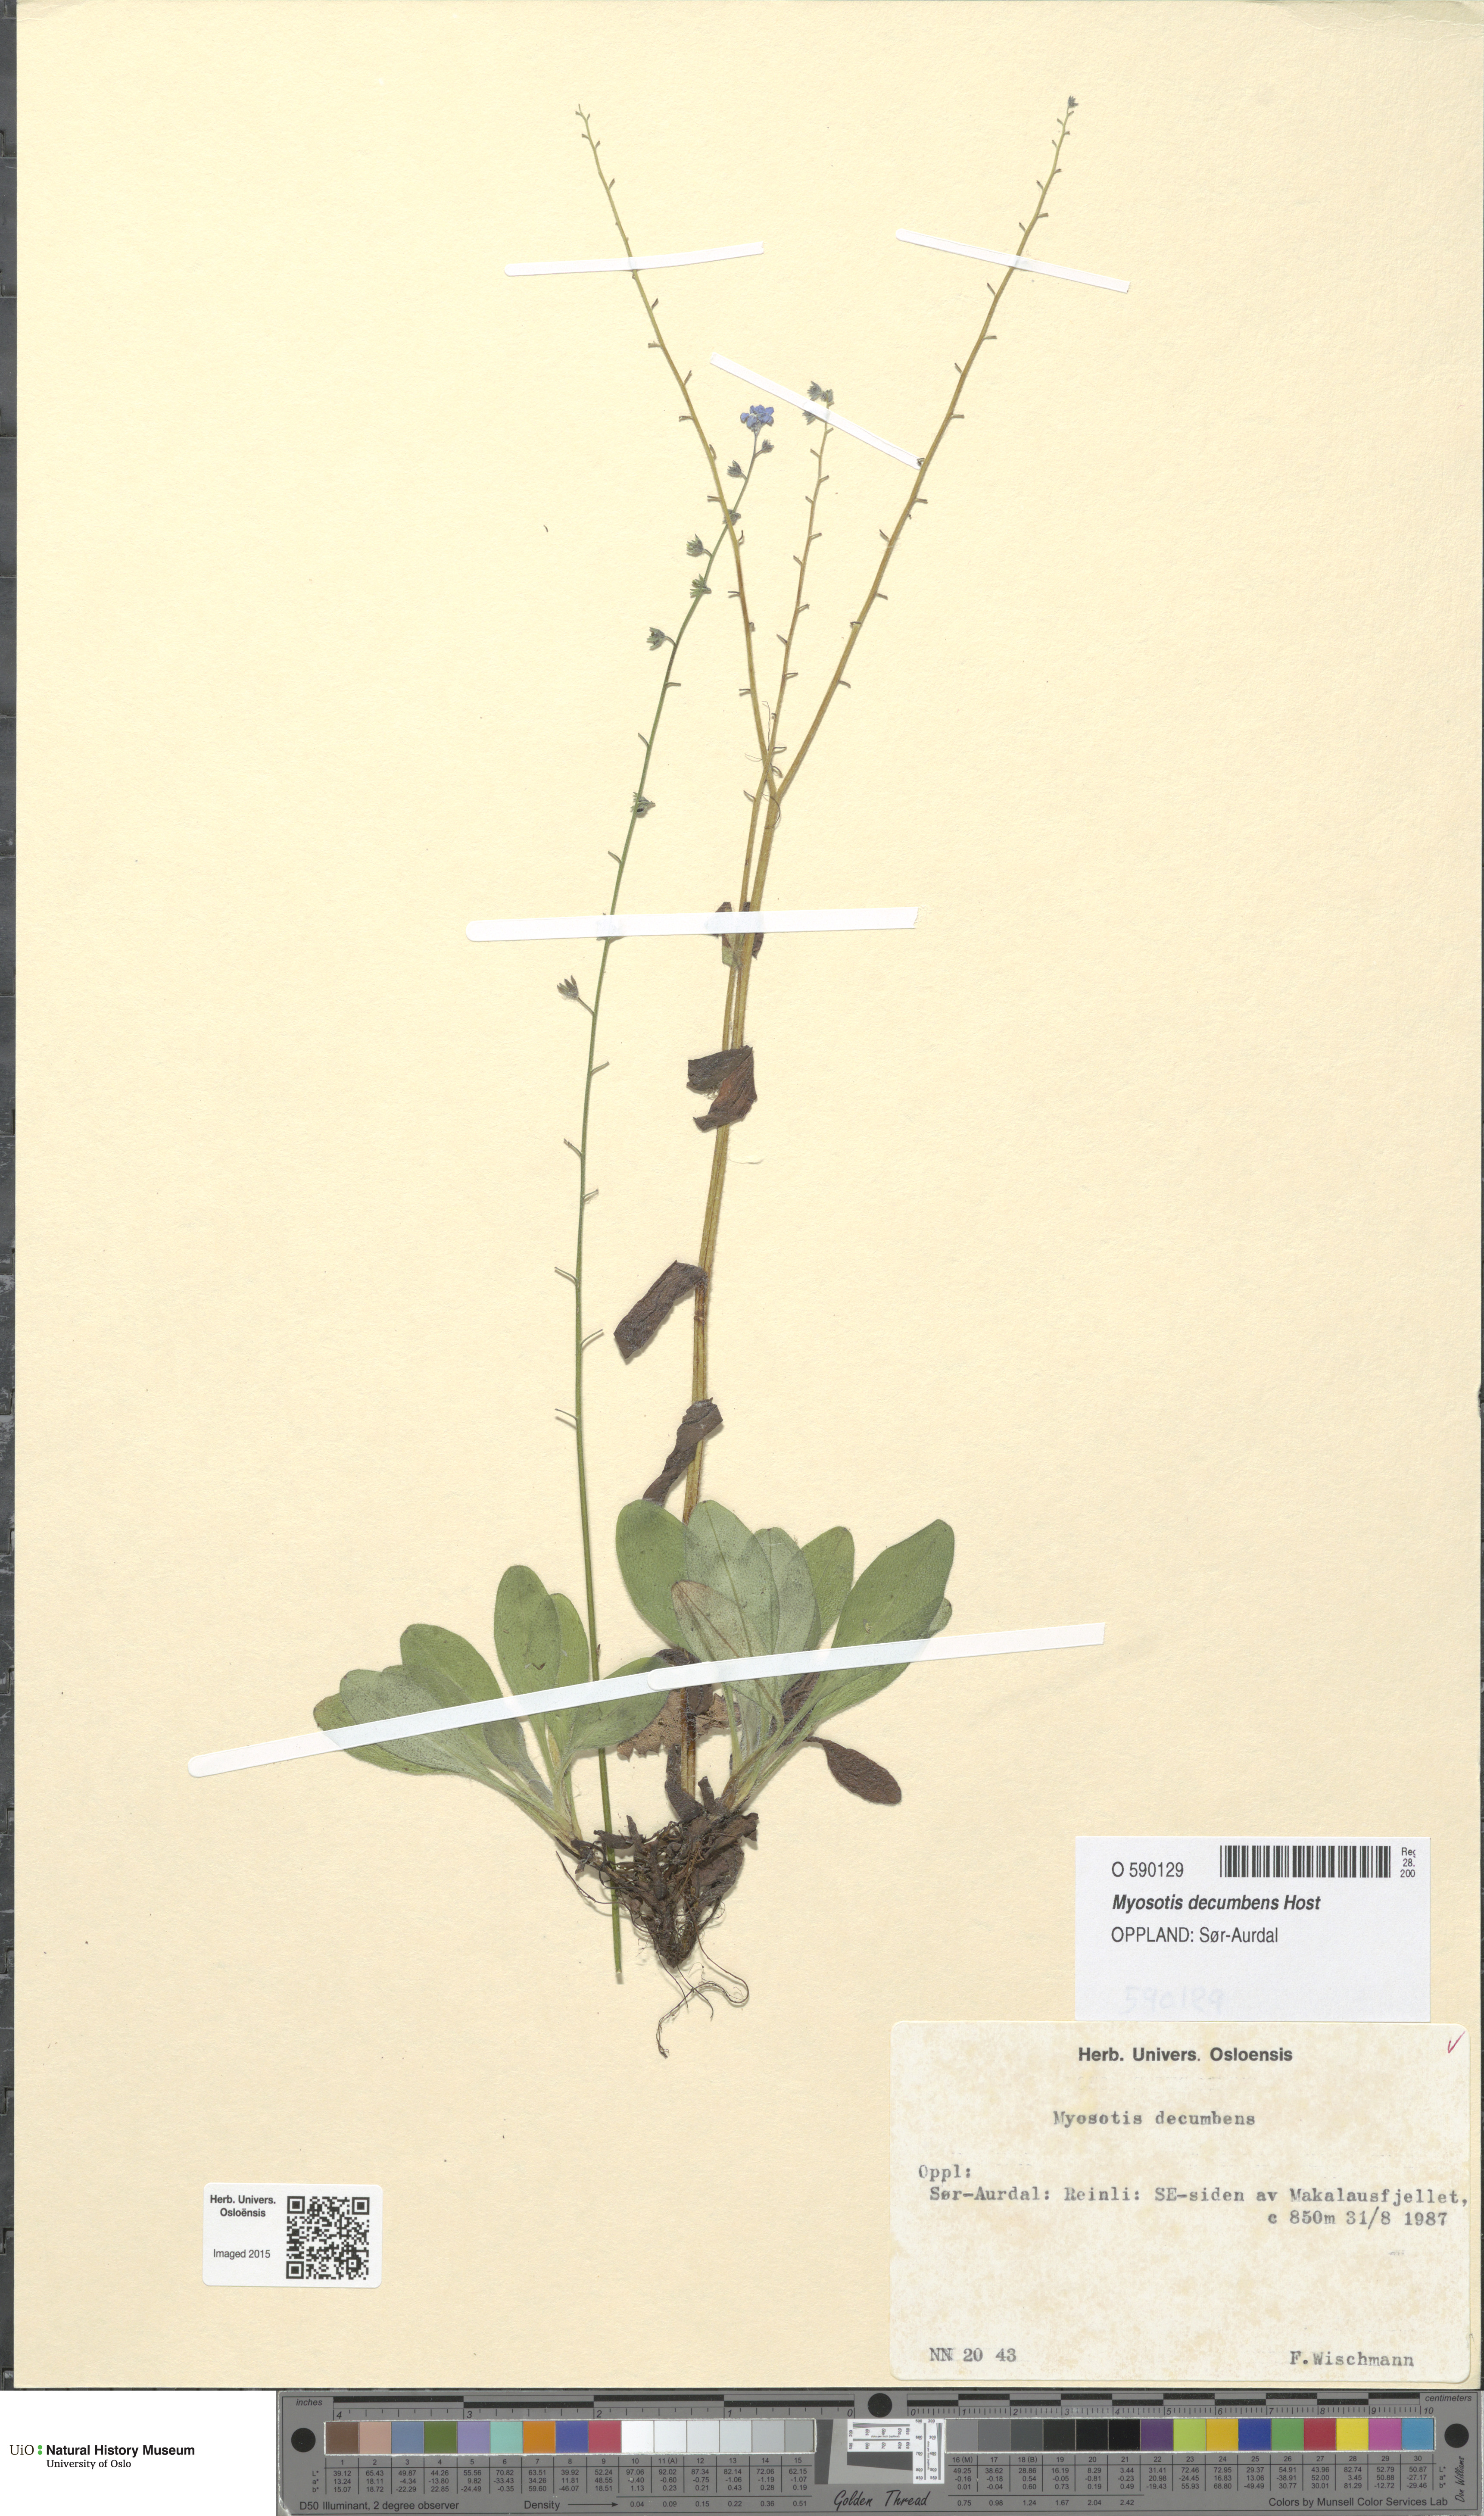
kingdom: Plantae
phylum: Tracheophyta
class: Magnoliopsida
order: Boraginales
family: Boraginaceae
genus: Myosotis
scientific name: Myosotis decumbens
